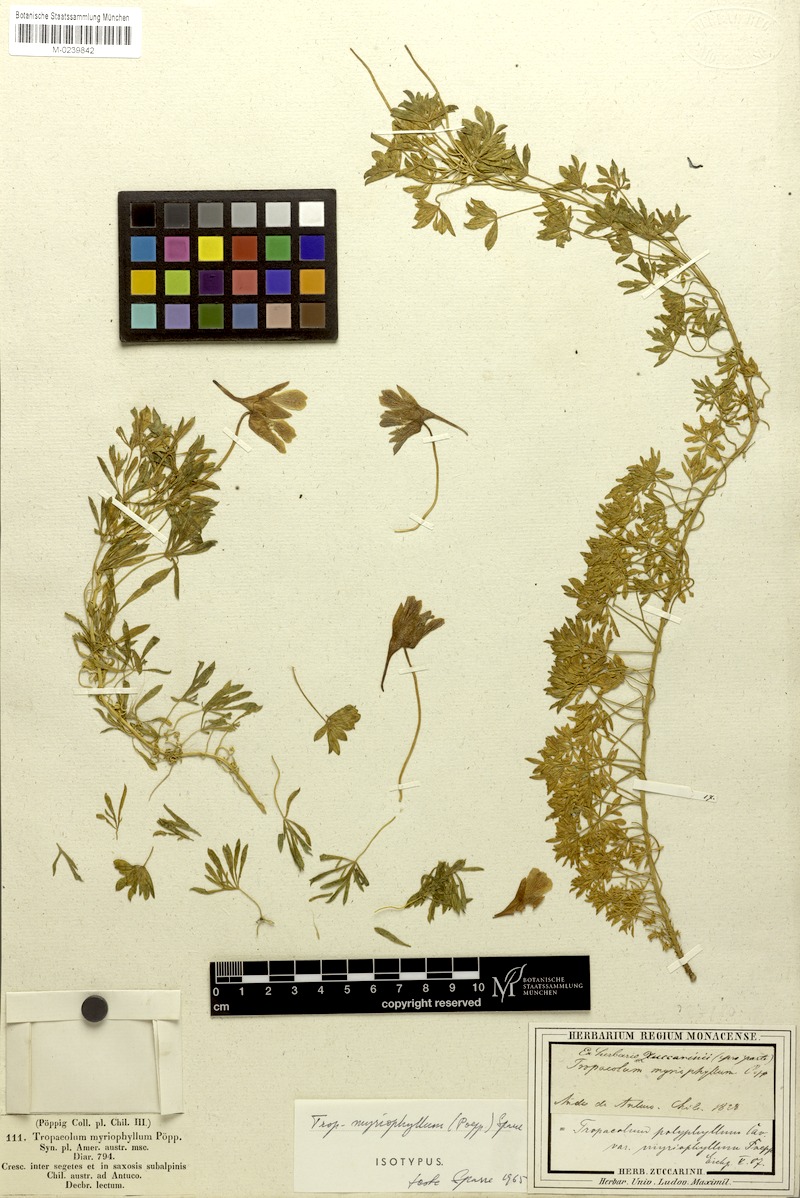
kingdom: Plantae
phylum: Tracheophyta
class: Magnoliopsida
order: Brassicales
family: Tropaeolaceae
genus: Tropaeolum
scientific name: Tropaeolum myriophyllum
